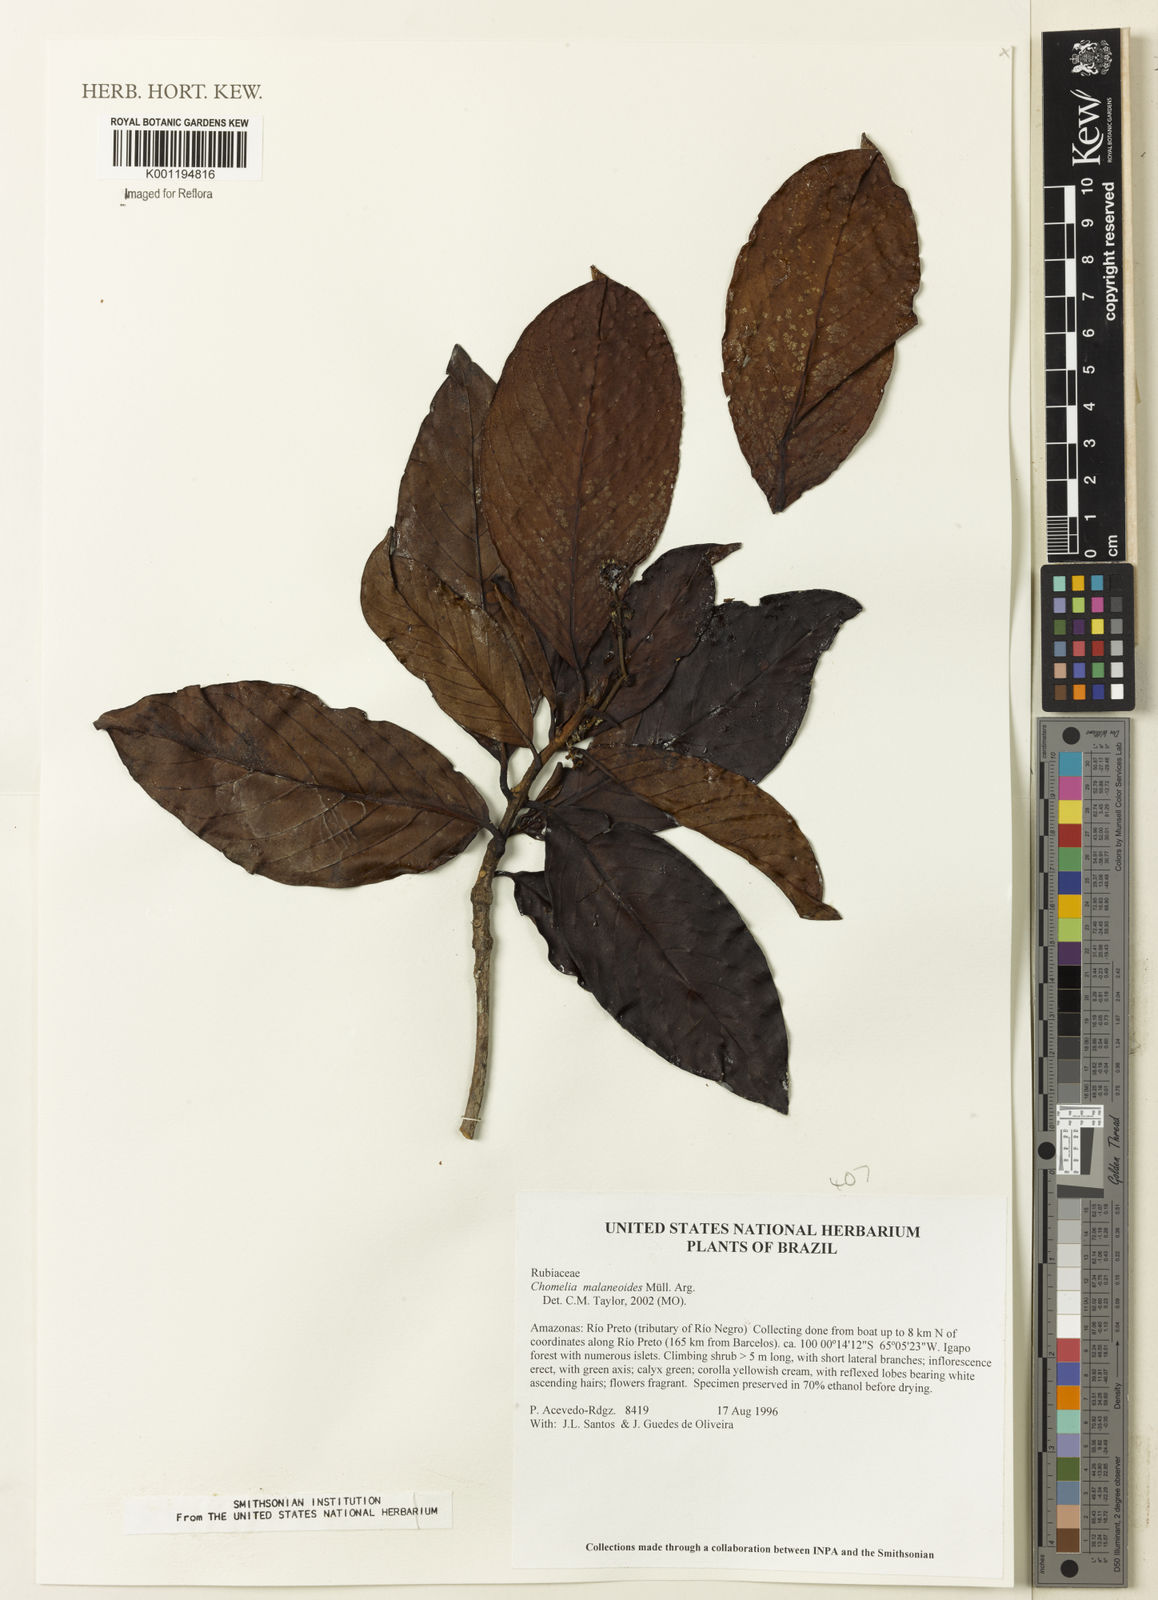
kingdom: Plantae
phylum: Tracheophyta
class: Magnoliopsida
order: Gentianales
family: Rubiaceae
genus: Chomelia
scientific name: Chomelia
